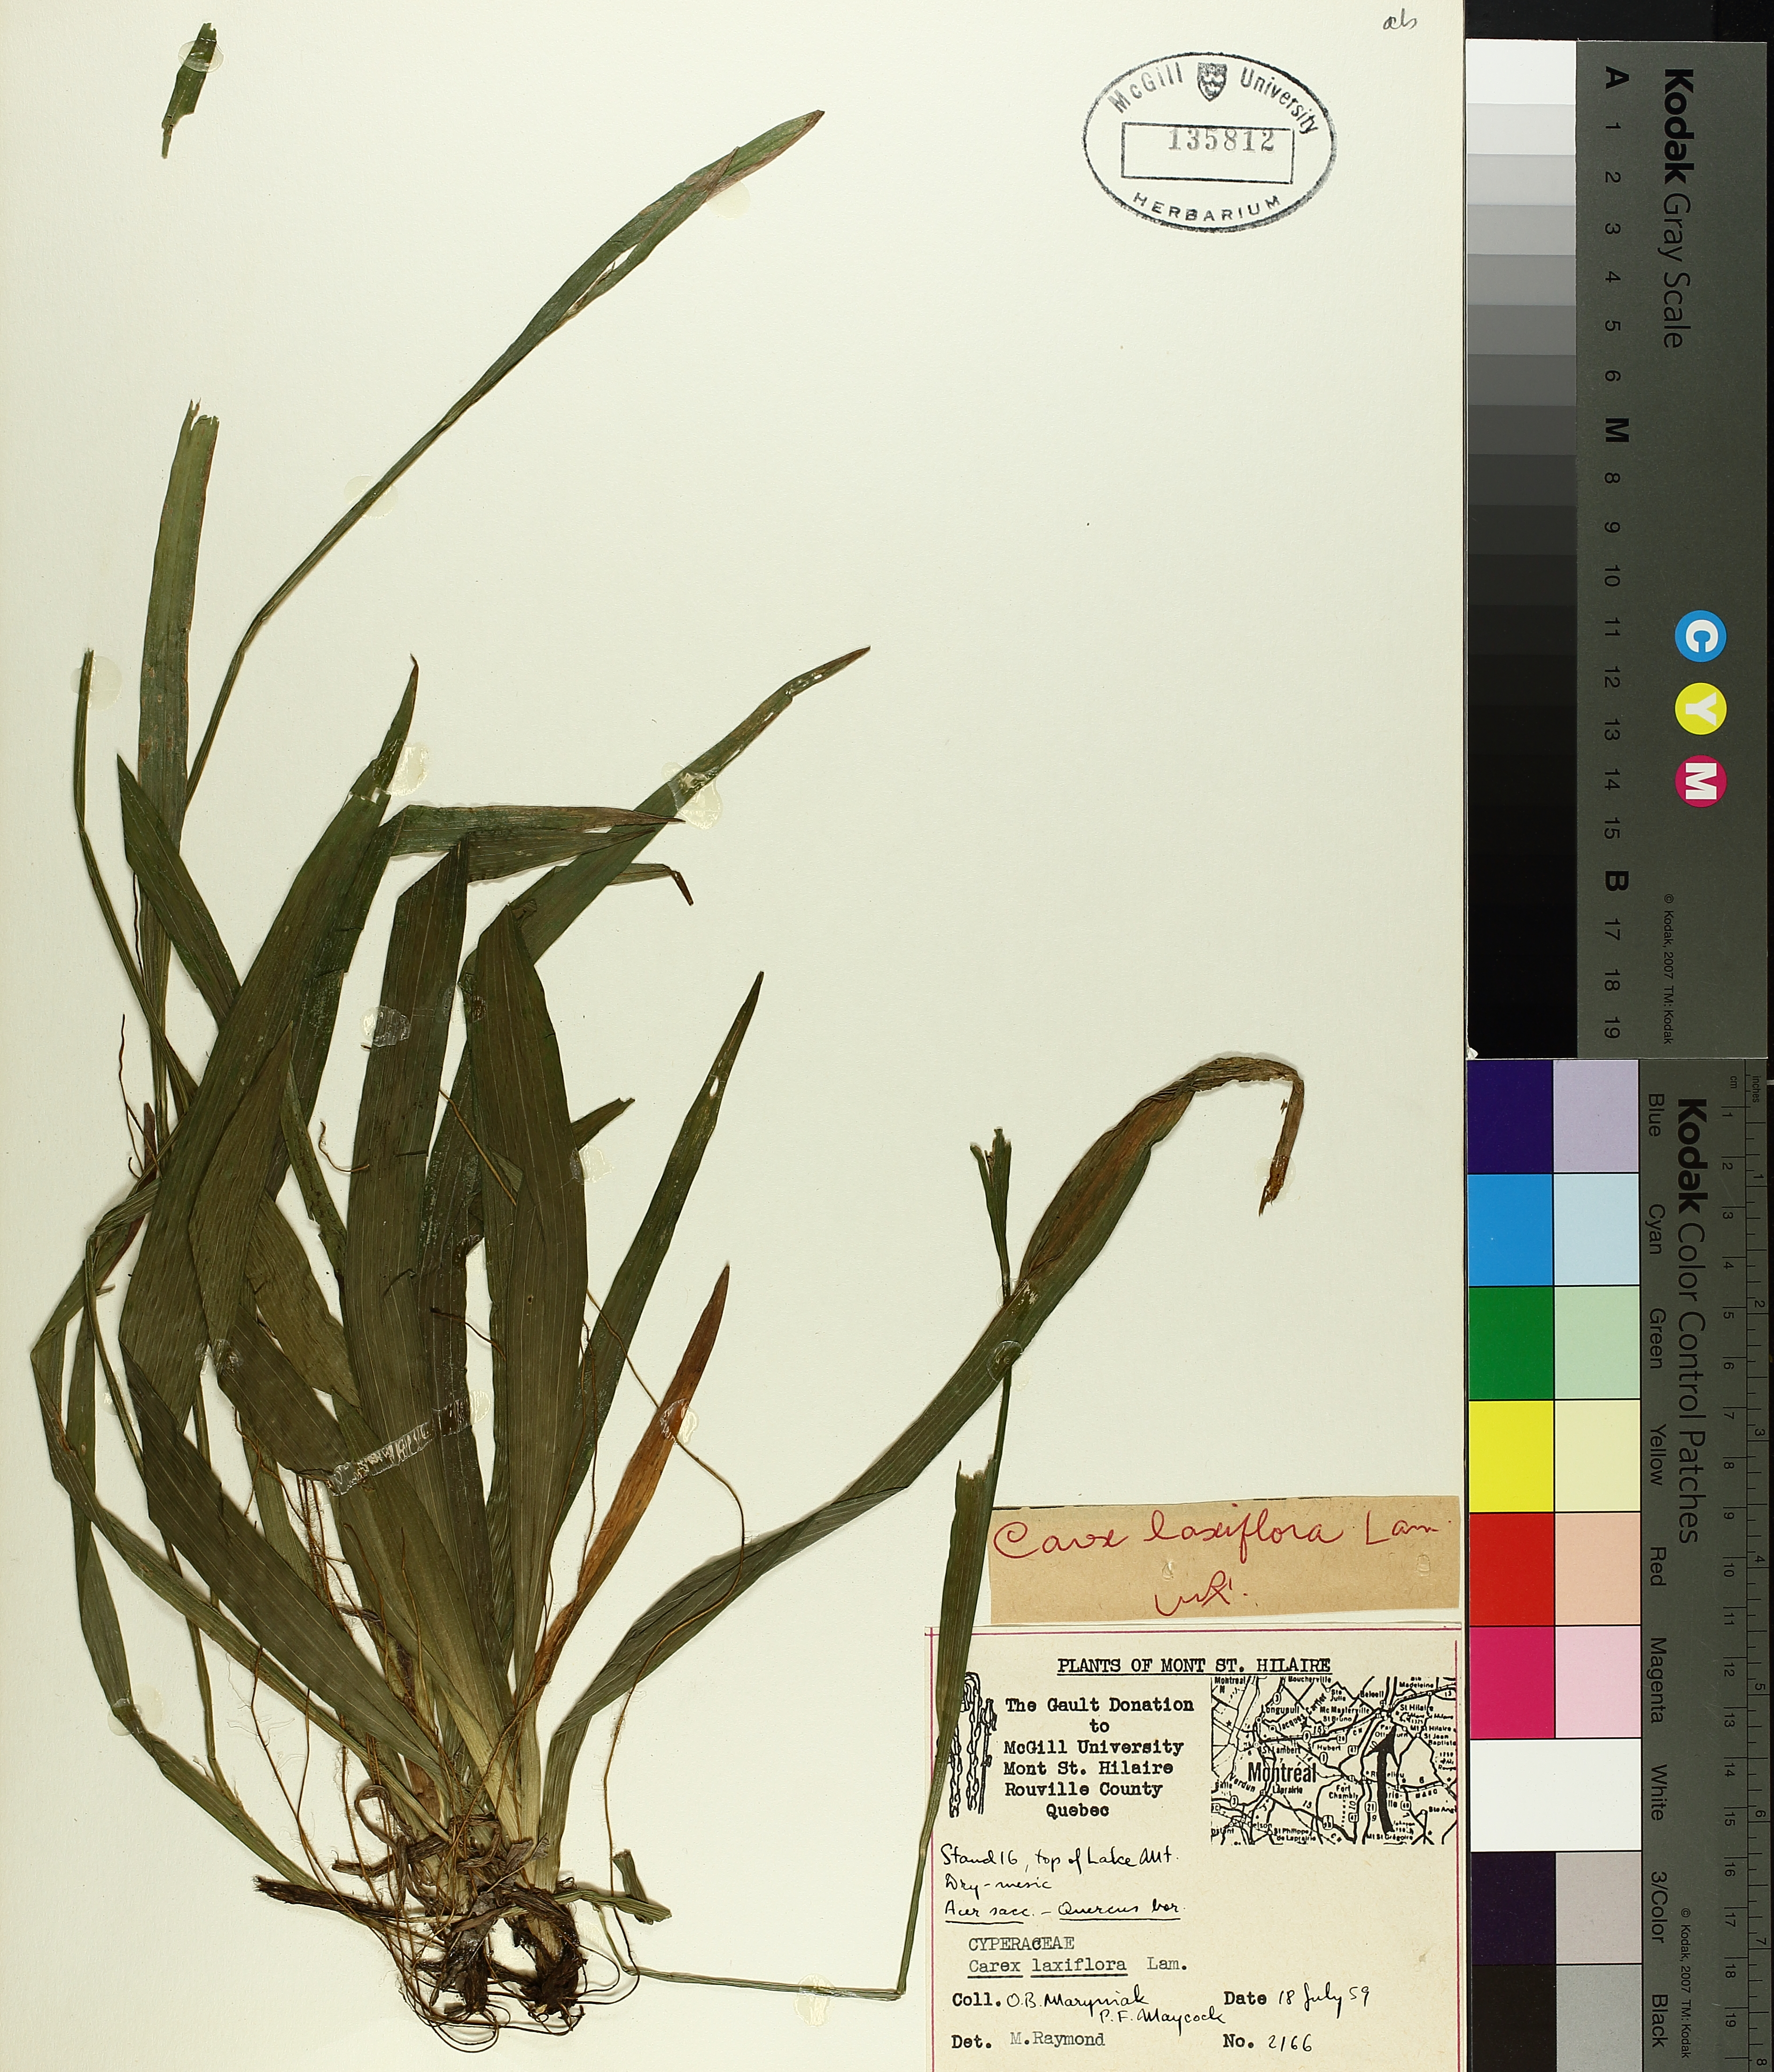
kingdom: Plantae
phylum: Tracheophyta
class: Liliopsida
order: Poales
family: Cyperaceae
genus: Carex
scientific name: Carex laxiflora
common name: Beech wood sedge
